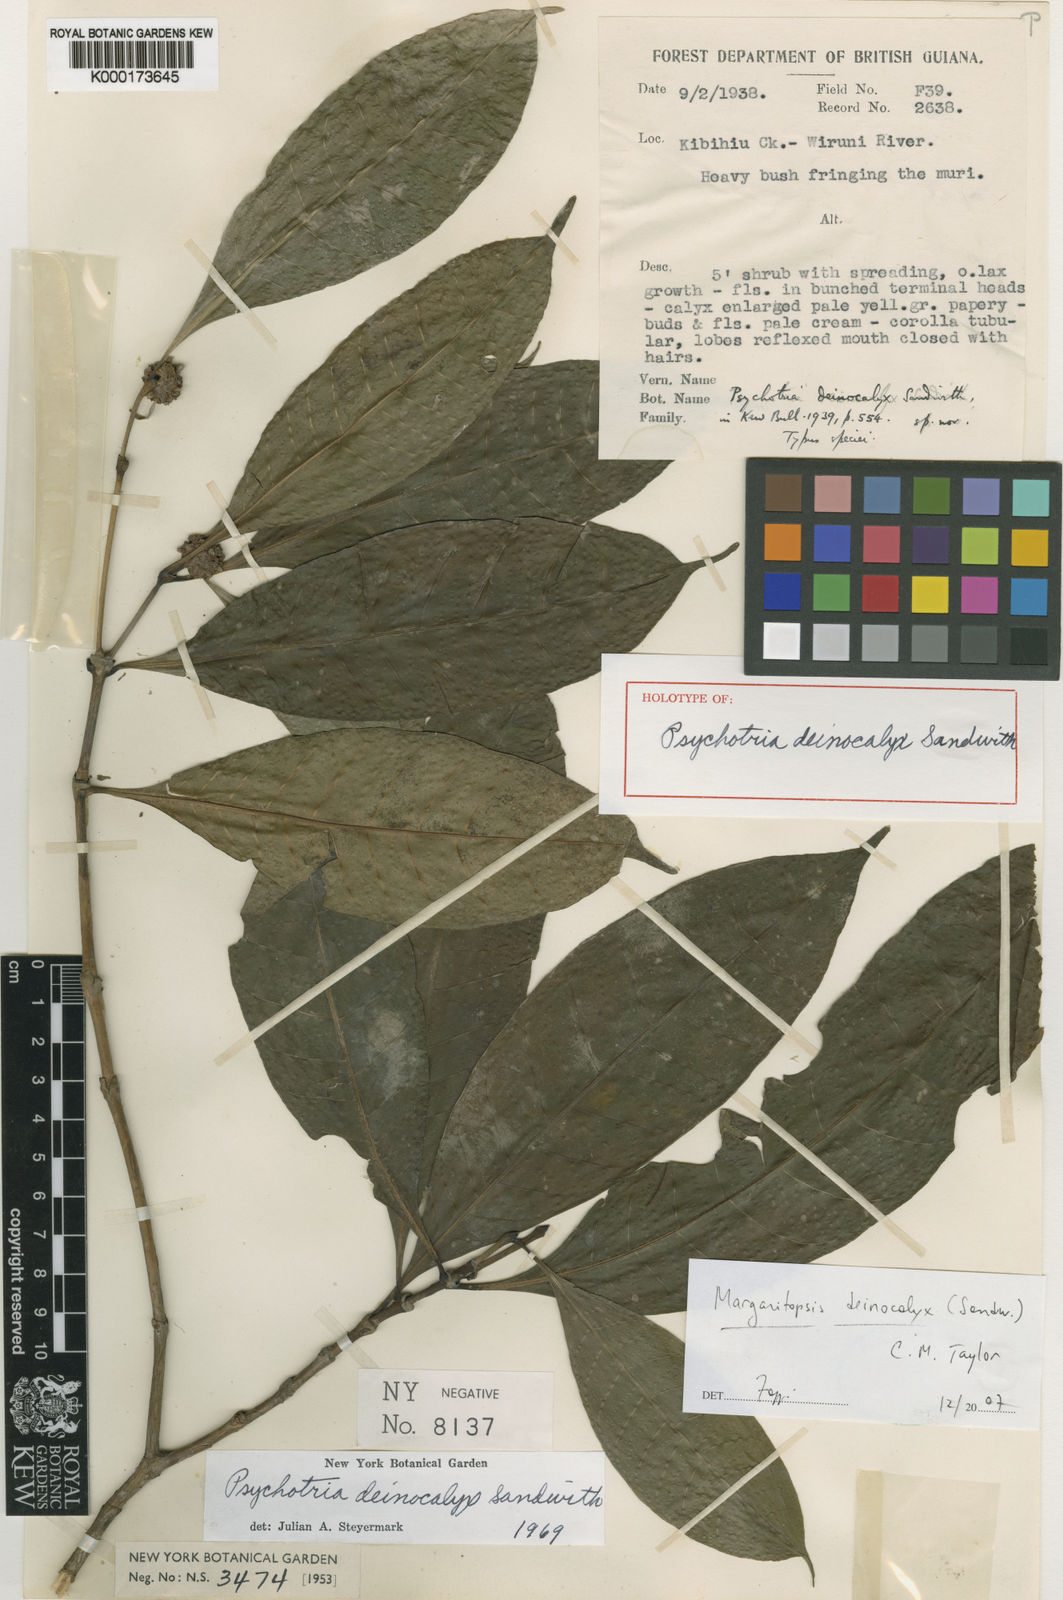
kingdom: Plantae
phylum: Tracheophyta
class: Magnoliopsida
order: Gentianales
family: Rubiaceae
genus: Eumachia
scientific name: Eumachia deinocalyx
